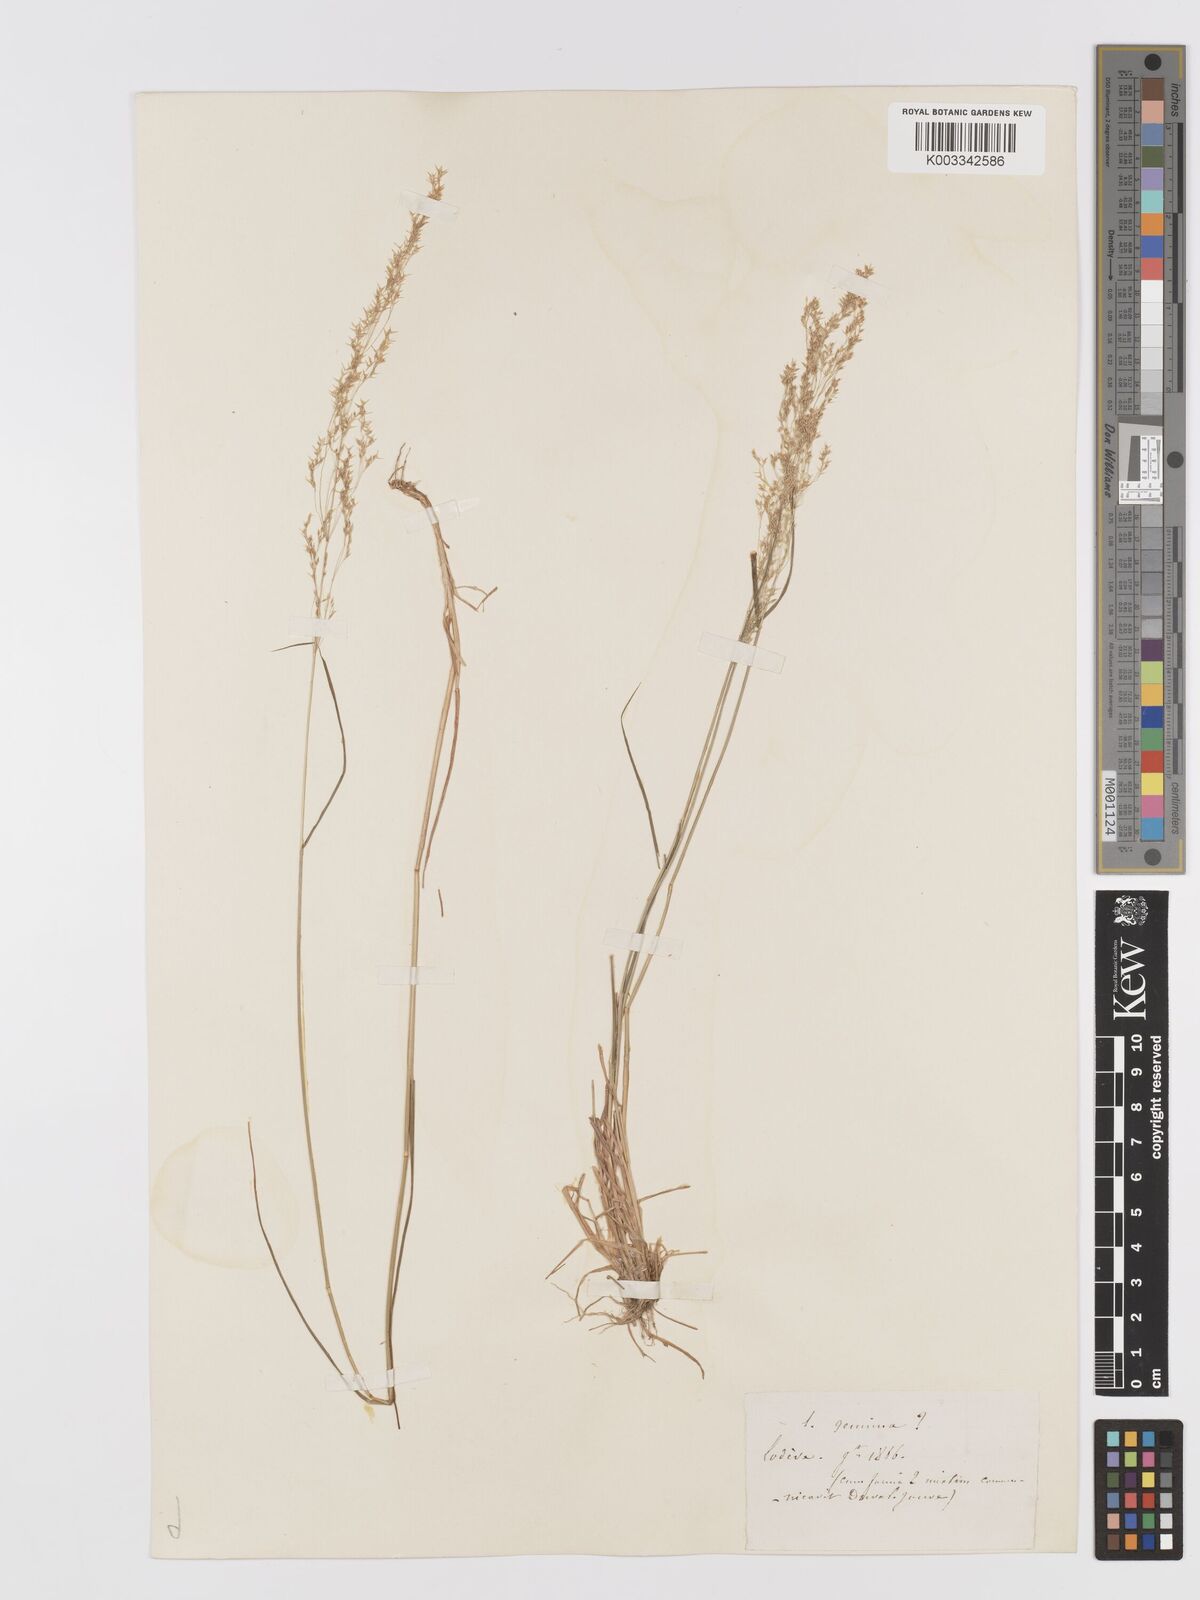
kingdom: Plantae
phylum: Tracheophyta
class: Liliopsida
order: Poales
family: Poaceae
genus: Agrostis
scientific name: Agrostis
